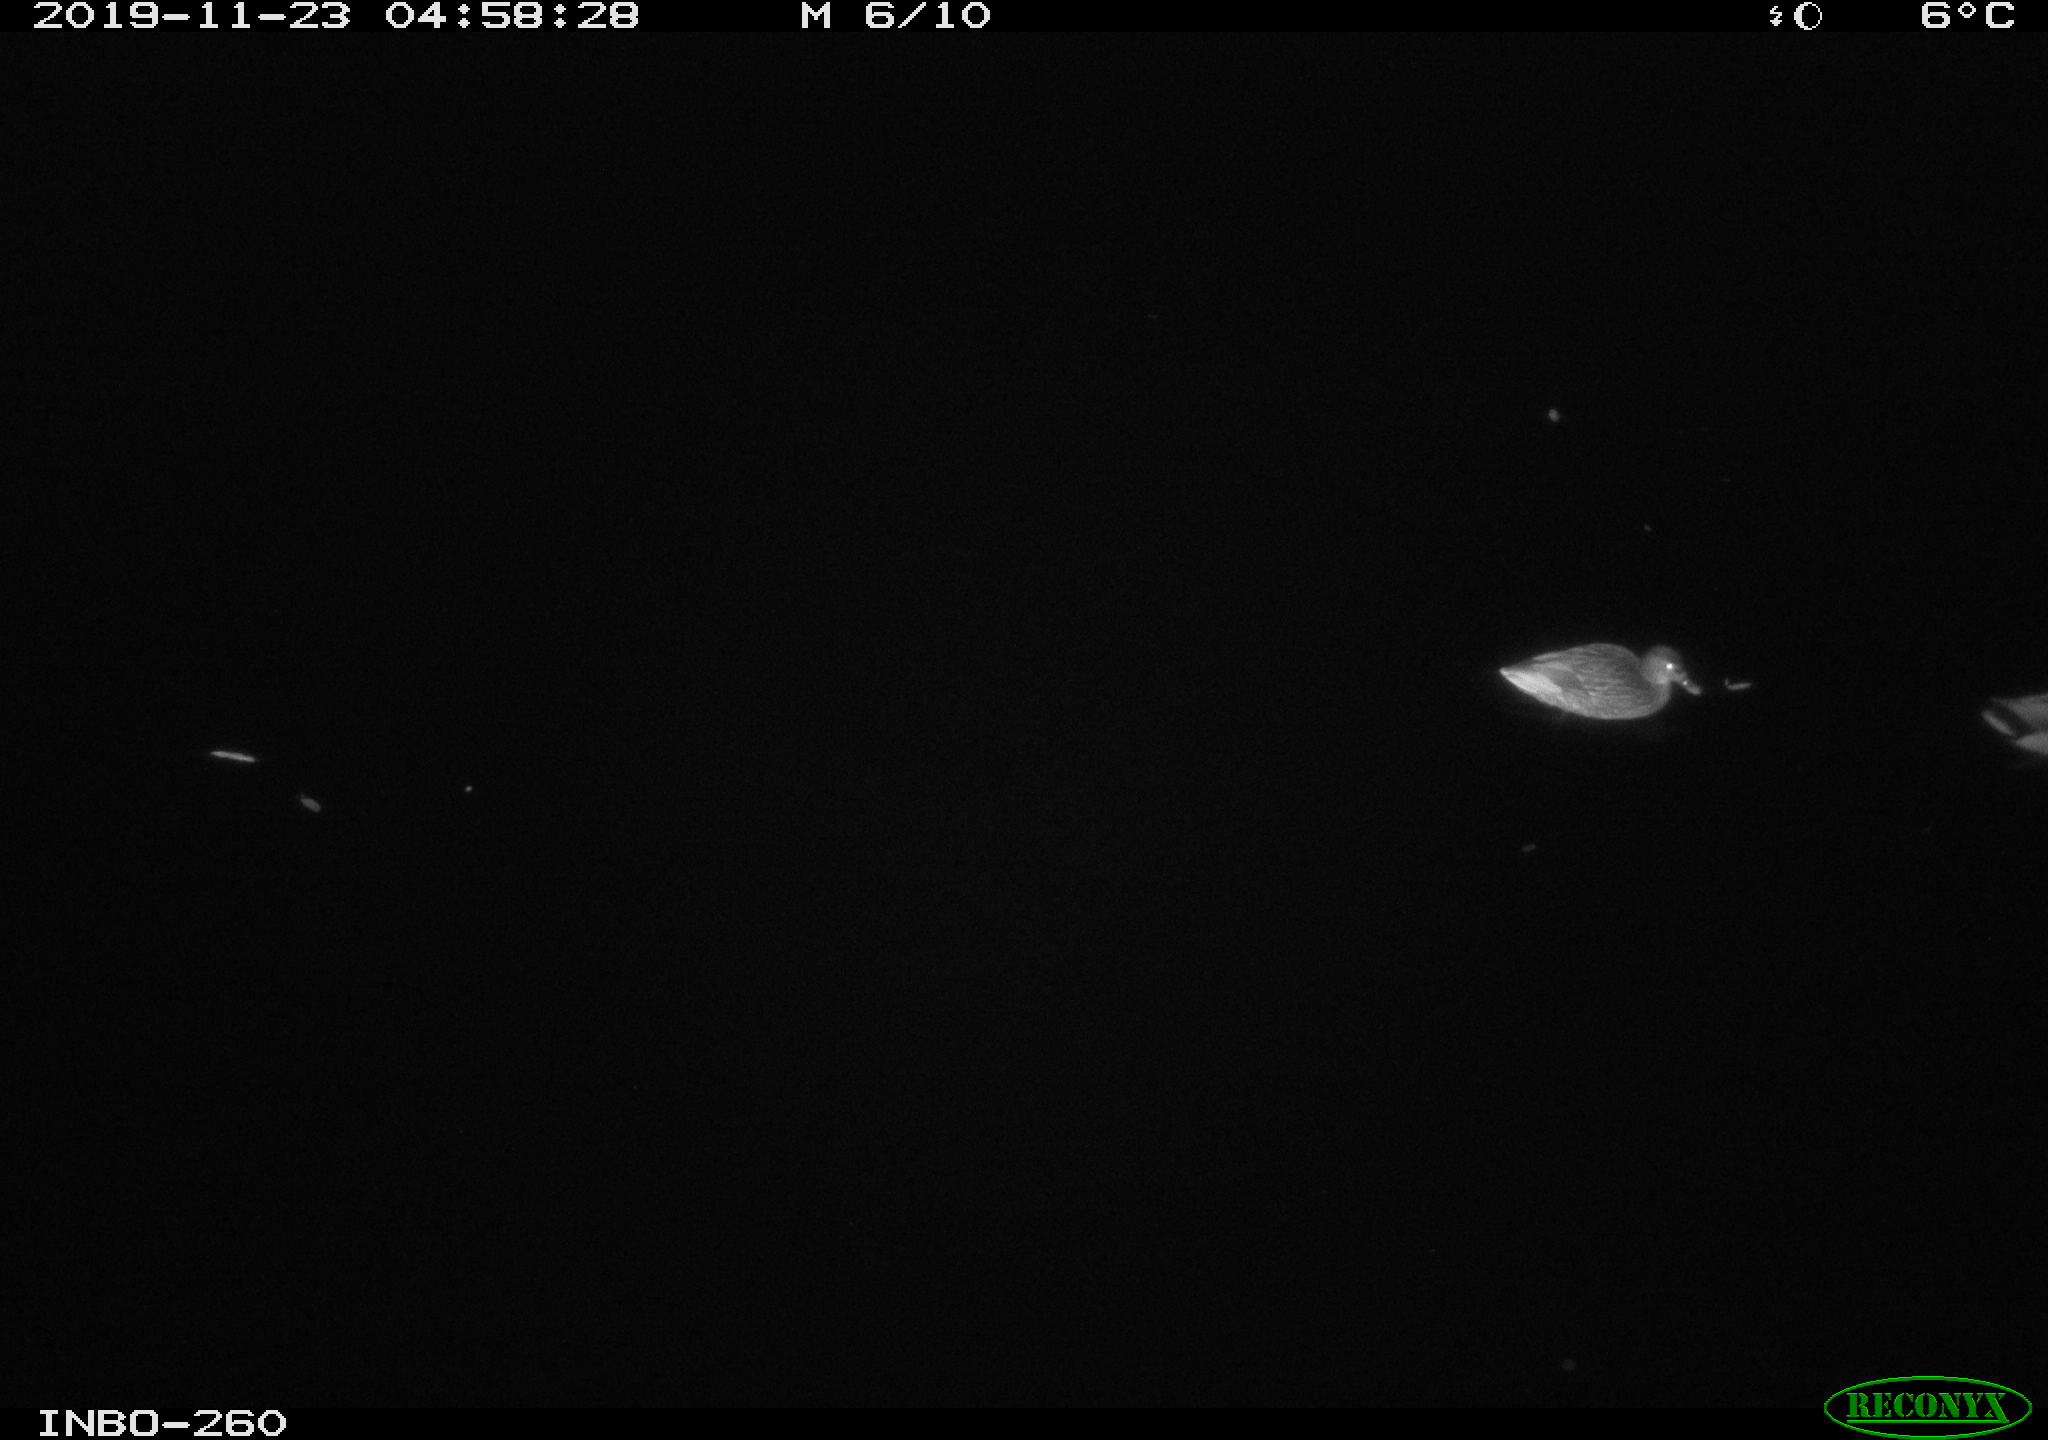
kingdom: Animalia
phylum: Chordata
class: Aves
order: Anseriformes
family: Anatidae
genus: Anas
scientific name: Anas platyrhynchos
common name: Mallard
